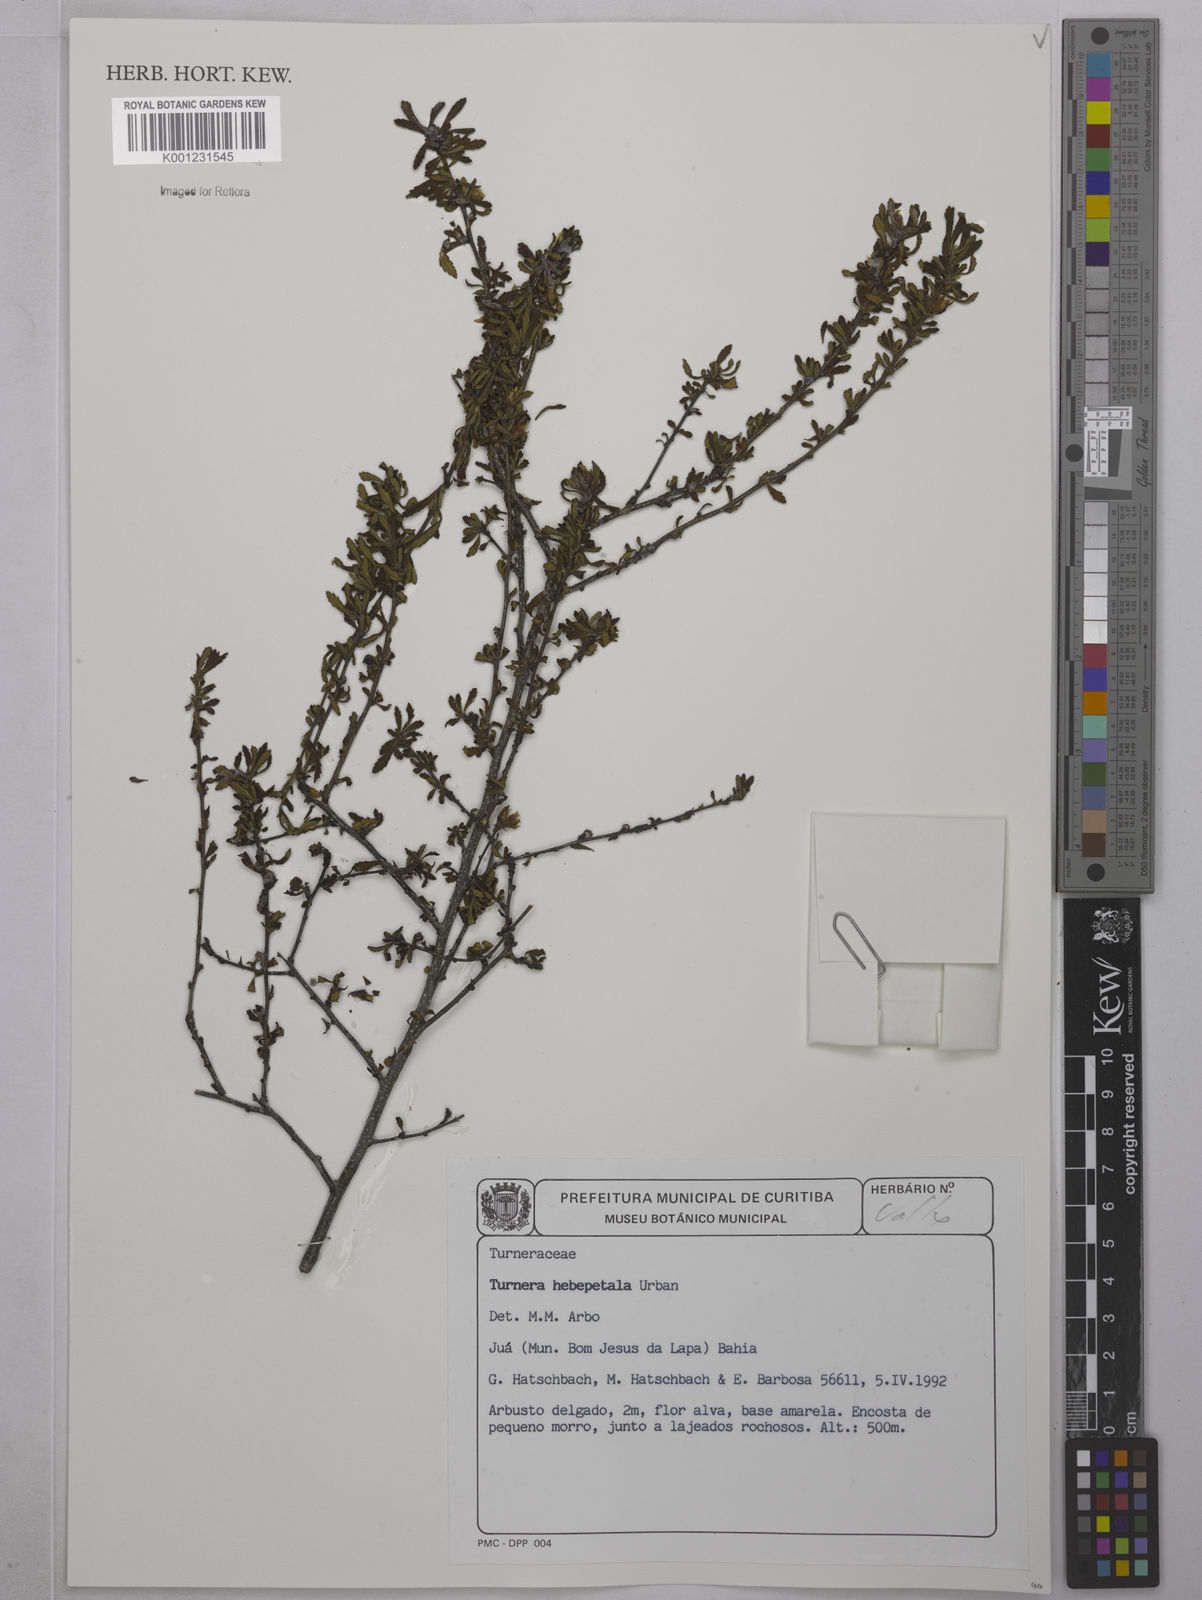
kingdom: Plantae
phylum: Tracheophyta
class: Magnoliopsida
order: Malpighiales
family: Turneraceae
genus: Oxossia
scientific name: Oxossia hebepetala
